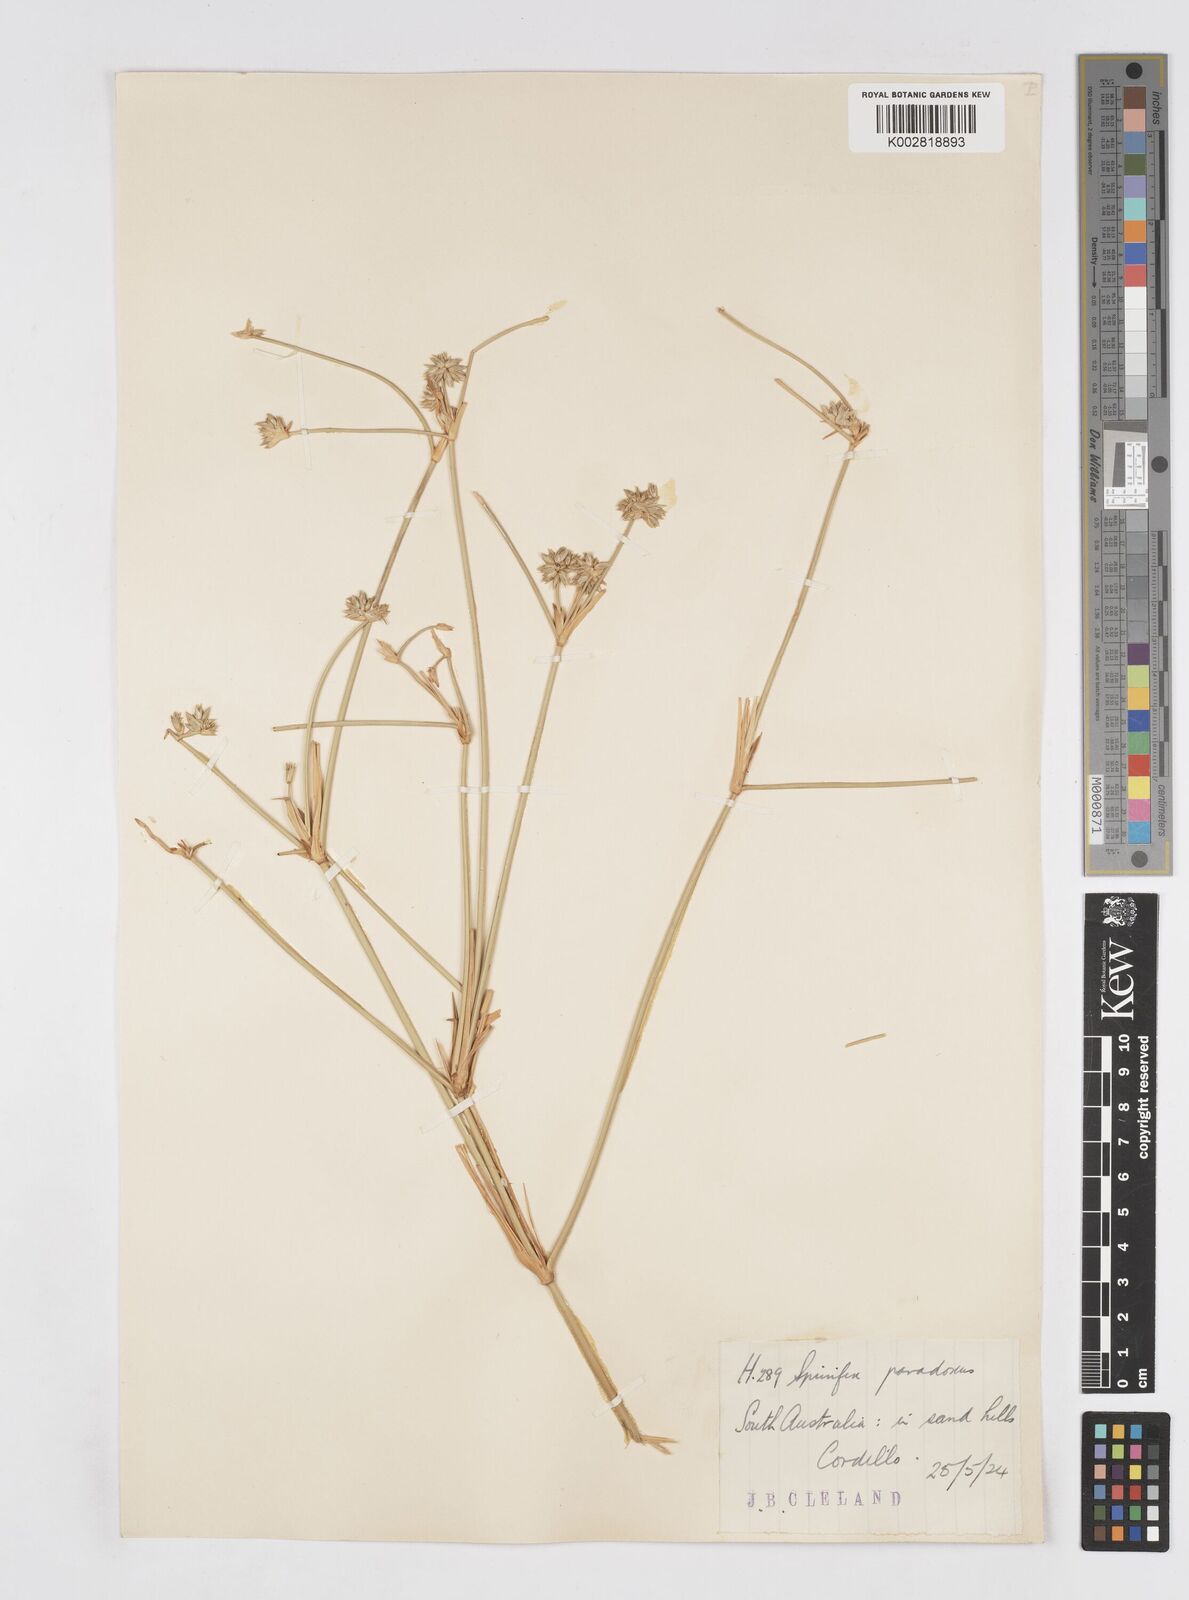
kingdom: Plantae
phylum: Tracheophyta
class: Liliopsida
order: Poales
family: Poaceae
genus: Zygochloa
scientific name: Zygochloa paradoxa
